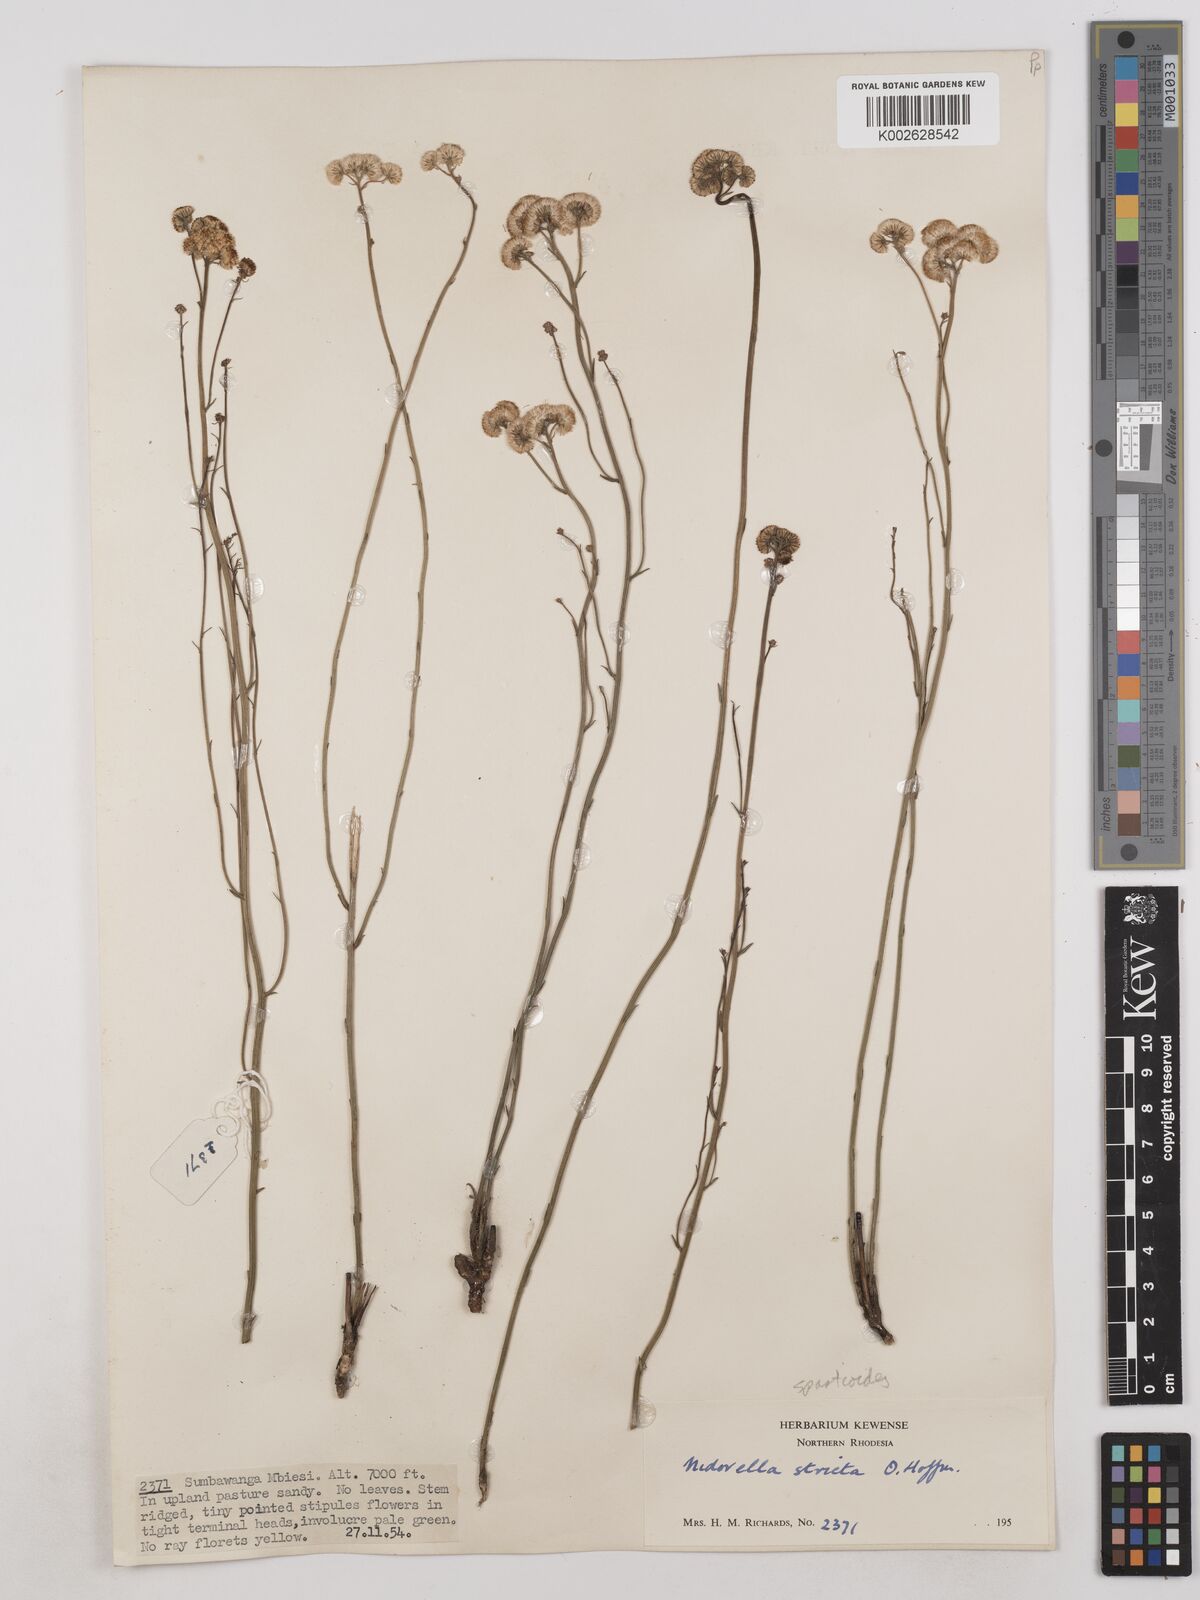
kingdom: Plantae
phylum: Tracheophyta
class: Magnoliopsida
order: Asterales
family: Asteraceae
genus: Nidorella
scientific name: Nidorella spartioides
